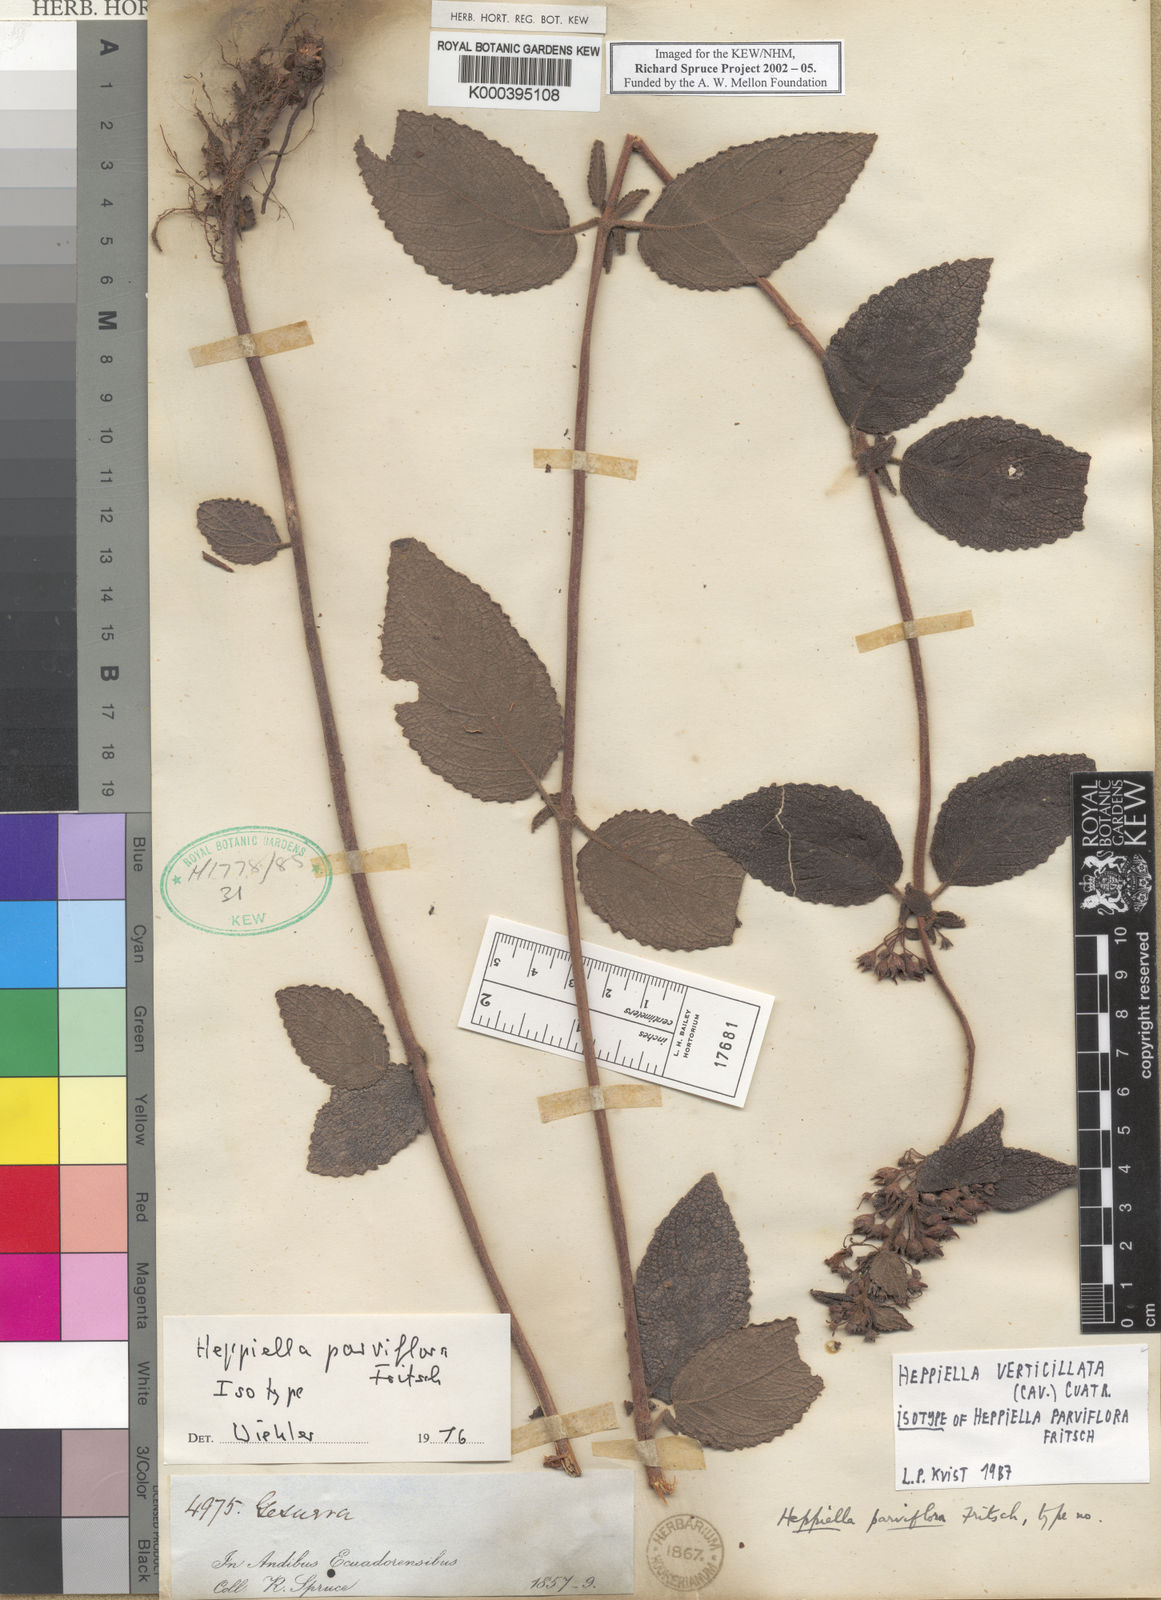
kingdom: Plantae
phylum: Tracheophyta
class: Magnoliopsida
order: Lamiales
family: Gesneriaceae
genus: Heppiella
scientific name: Heppiella verticillata
